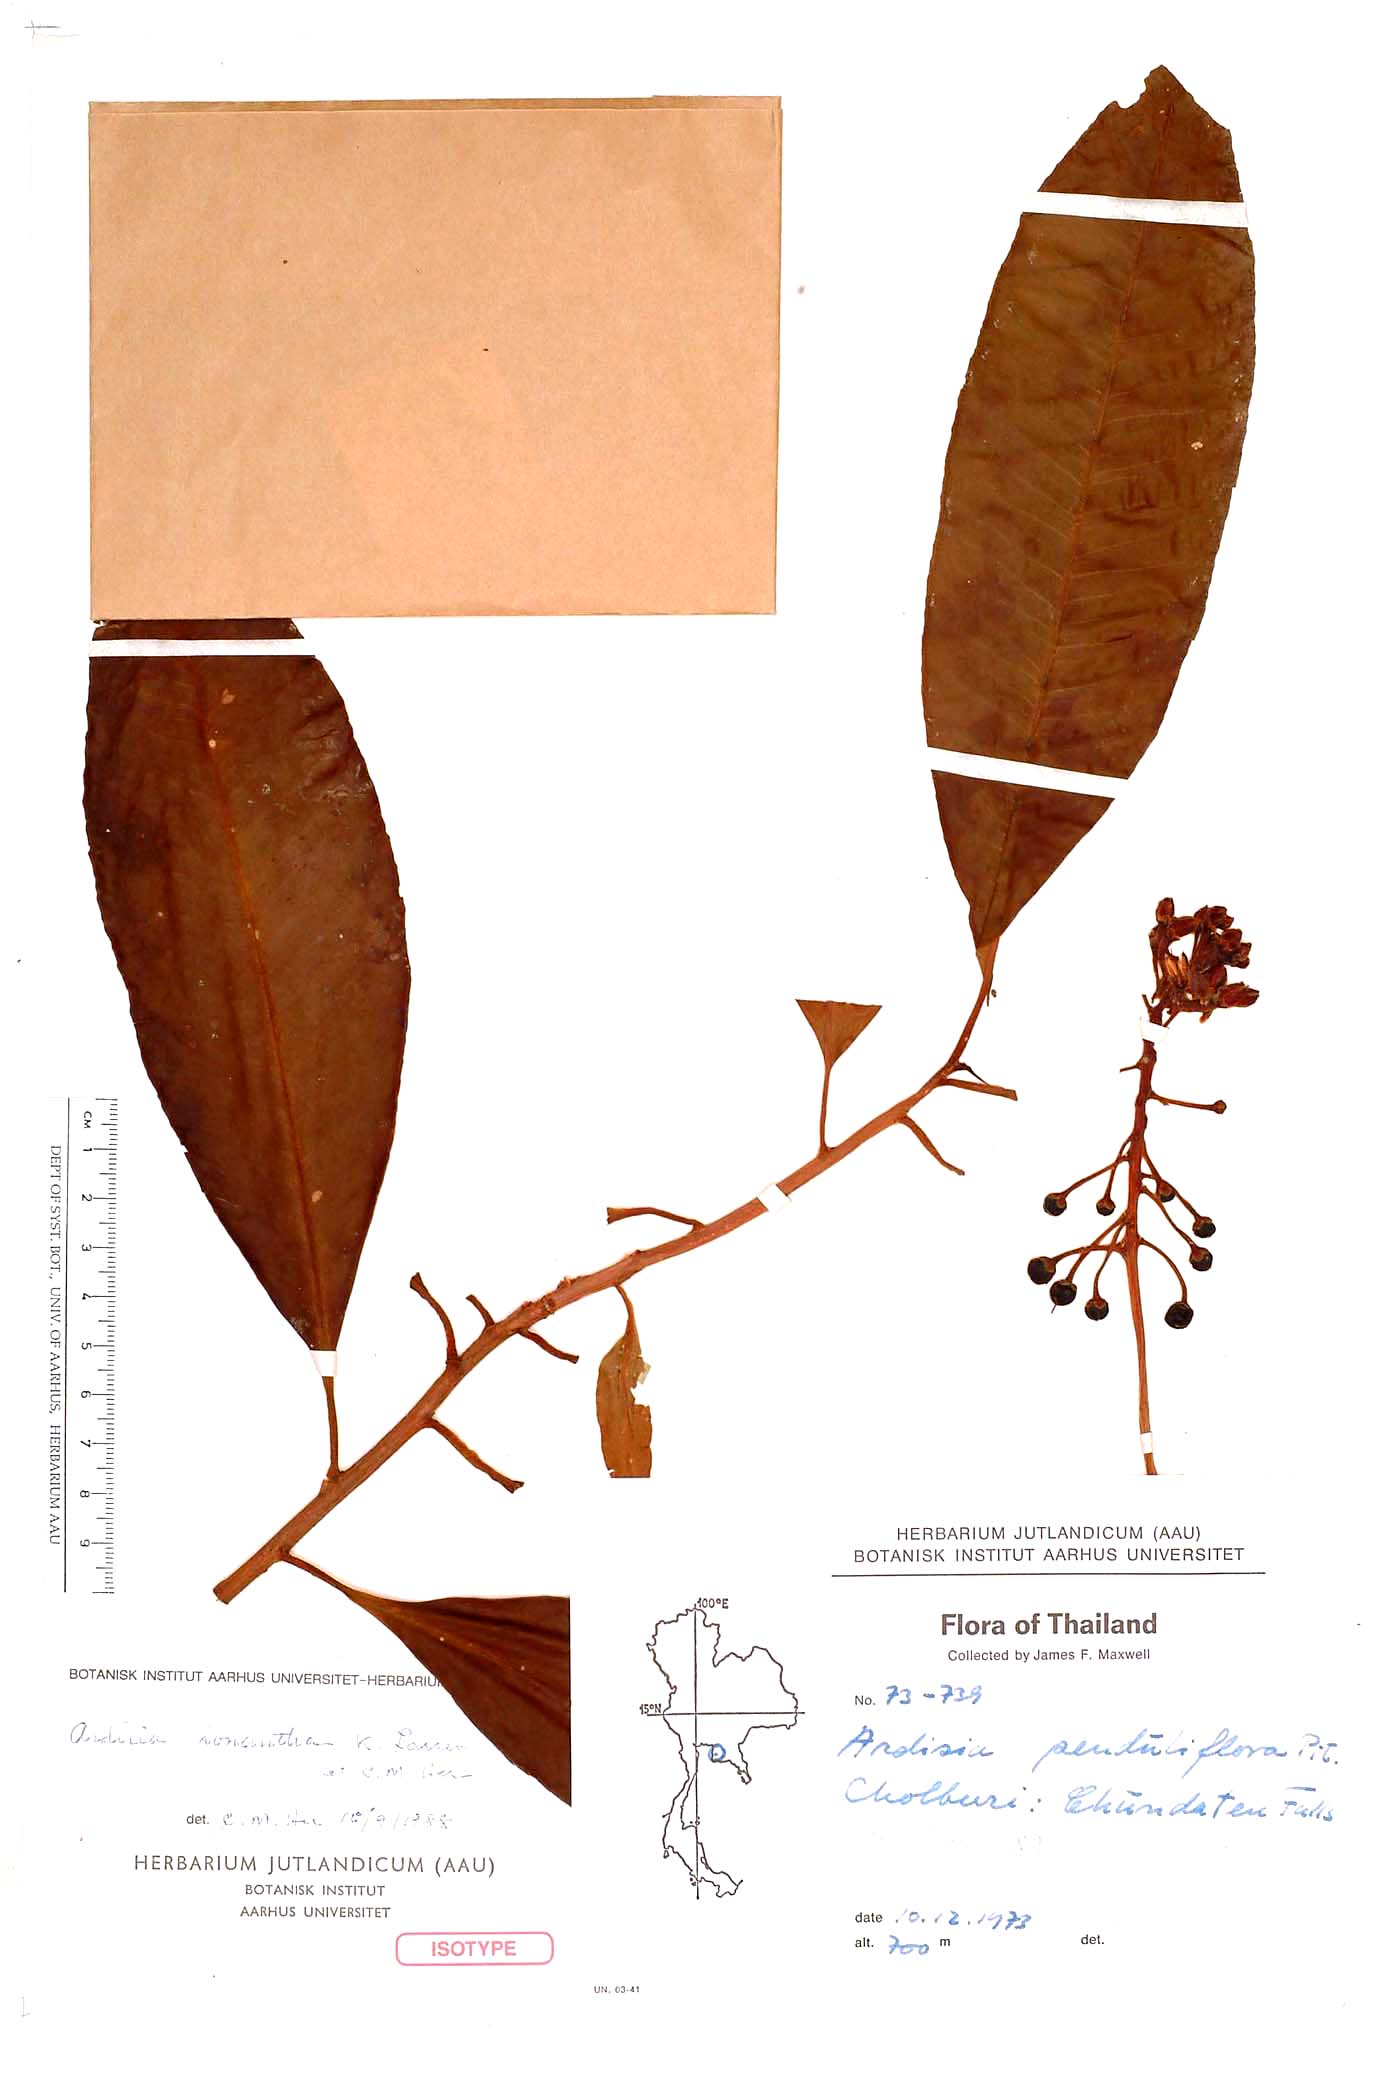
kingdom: Plantae
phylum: Tracheophyta
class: Magnoliopsida
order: Ericales
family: Primulaceae
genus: Ardisia
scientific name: Ardisia ionantha
